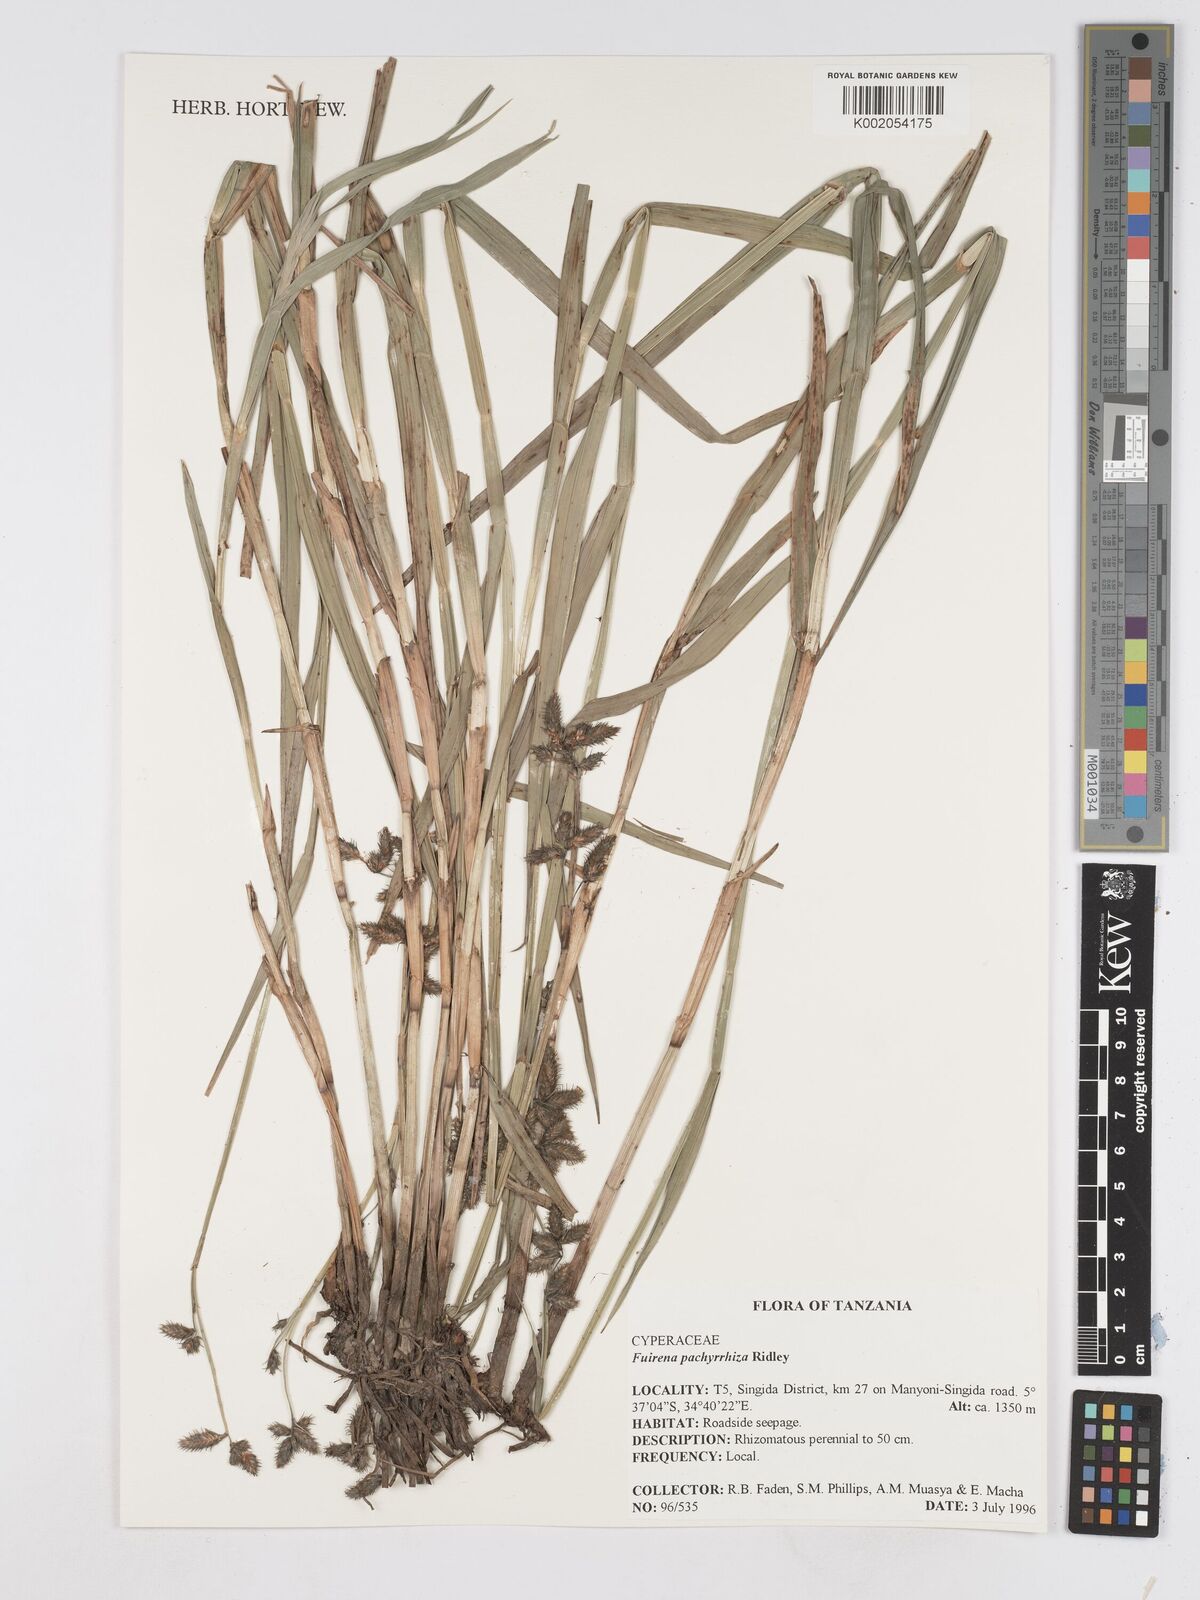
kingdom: Plantae
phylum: Tracheophyta
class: Liliopsida
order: Poales
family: Cyperaceae
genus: Fuirena
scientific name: Fuirena pachyrrhiza
